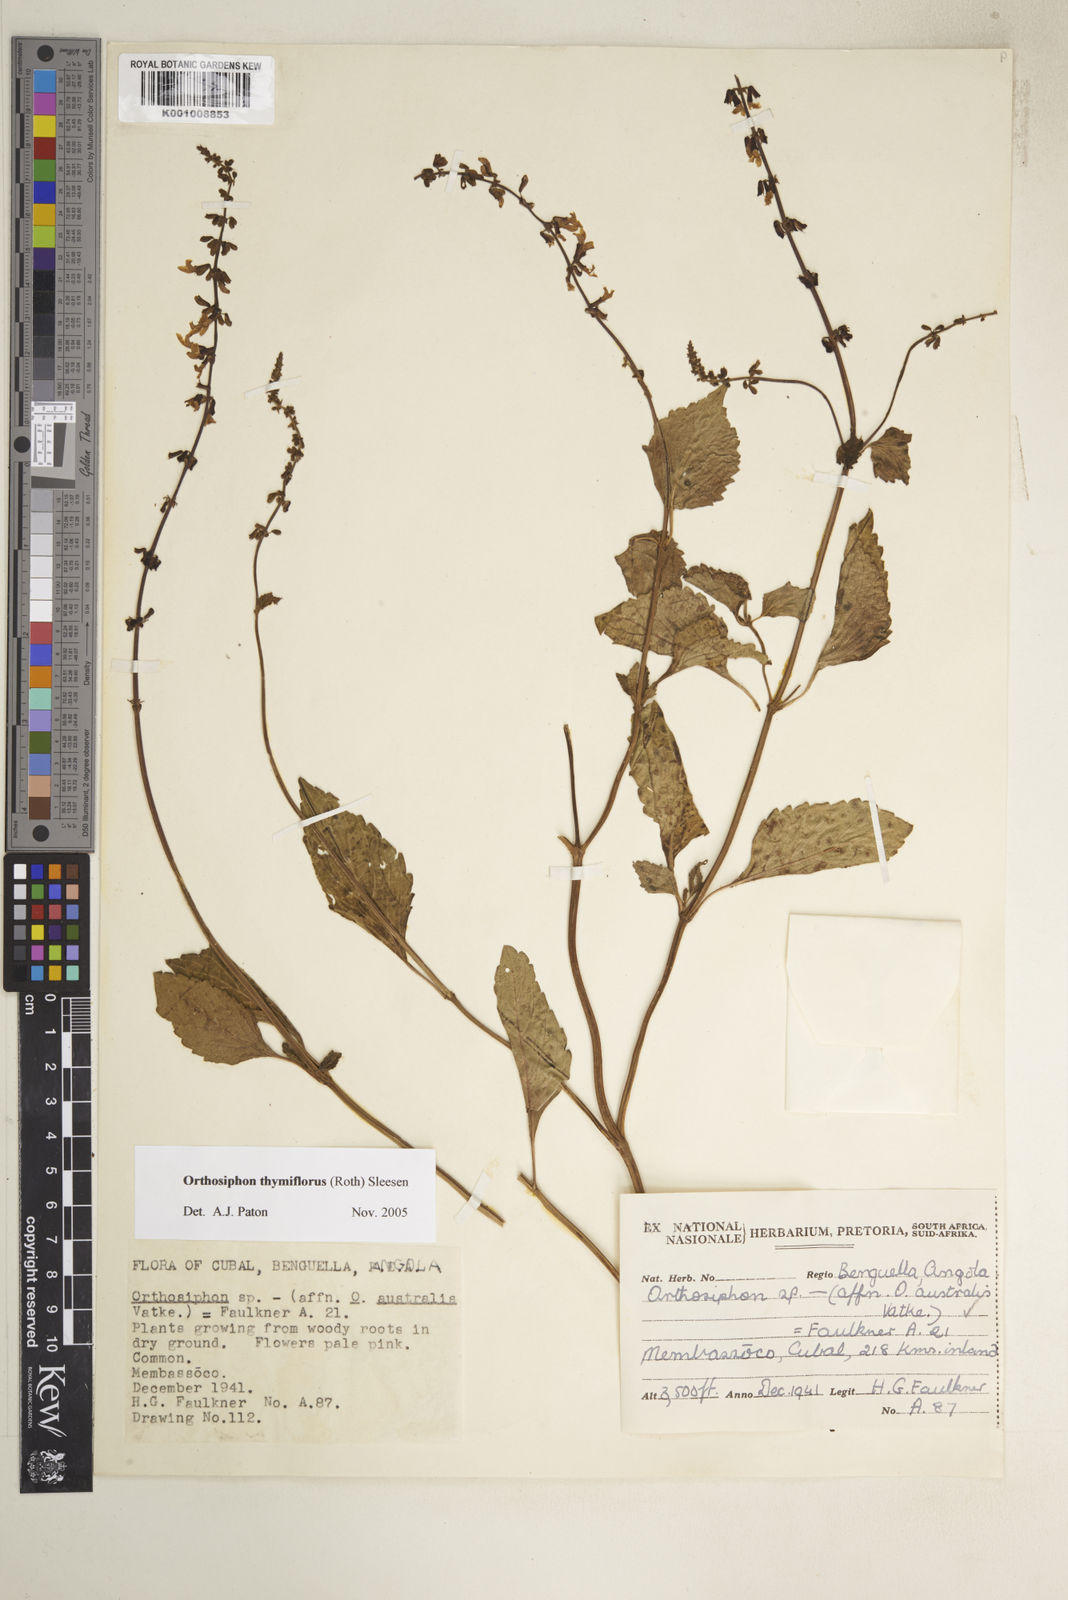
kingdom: Plantae
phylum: Tracheophyta
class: Magnoliopsida
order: Lamiales
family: Lamiaceae
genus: Orthosiphon
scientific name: Orthosiphon thymiflorus
